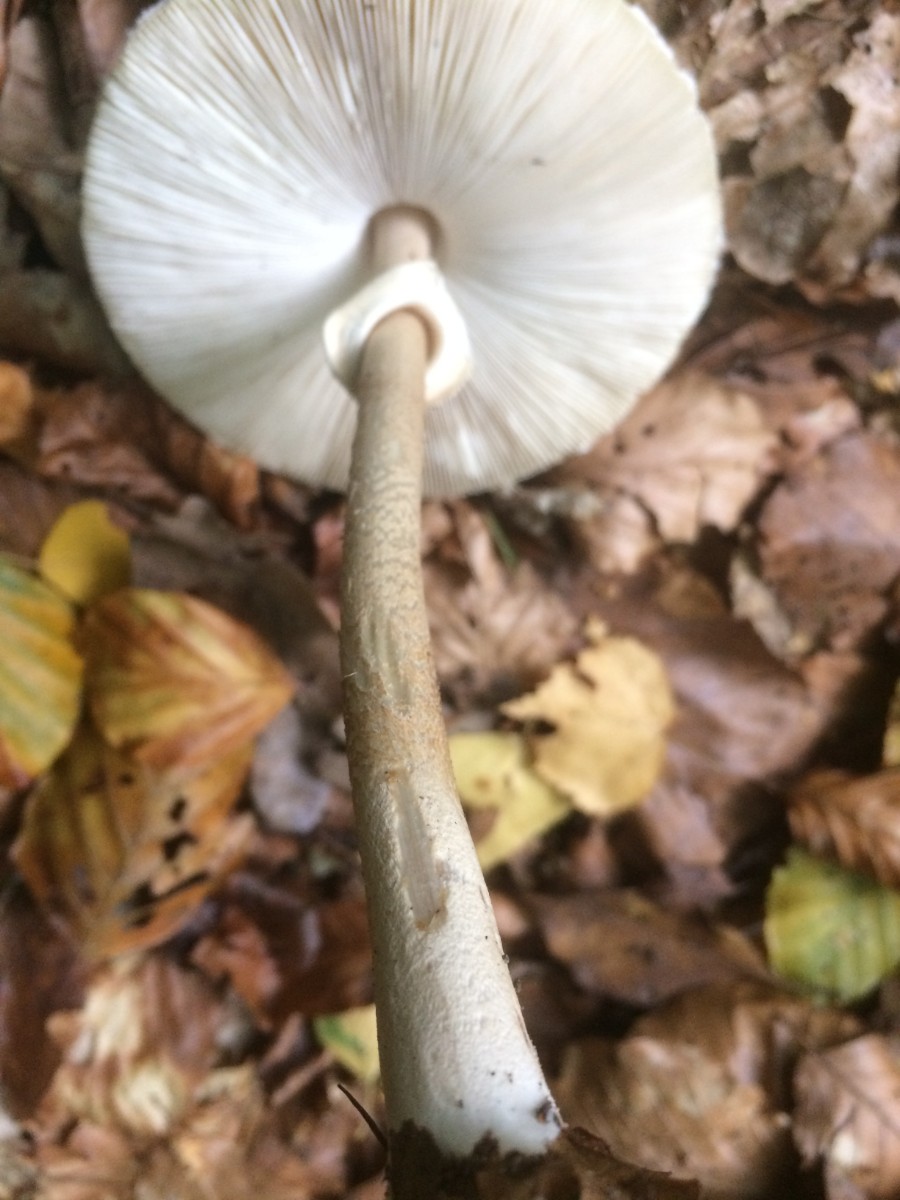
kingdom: Fungi
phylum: Basidiomycota
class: Agaricomycetes
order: Agaricales
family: Agaricaceae
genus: Macrolepiota
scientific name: Macrolepiota mastoidea
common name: puklet kæmpeparasolhat
